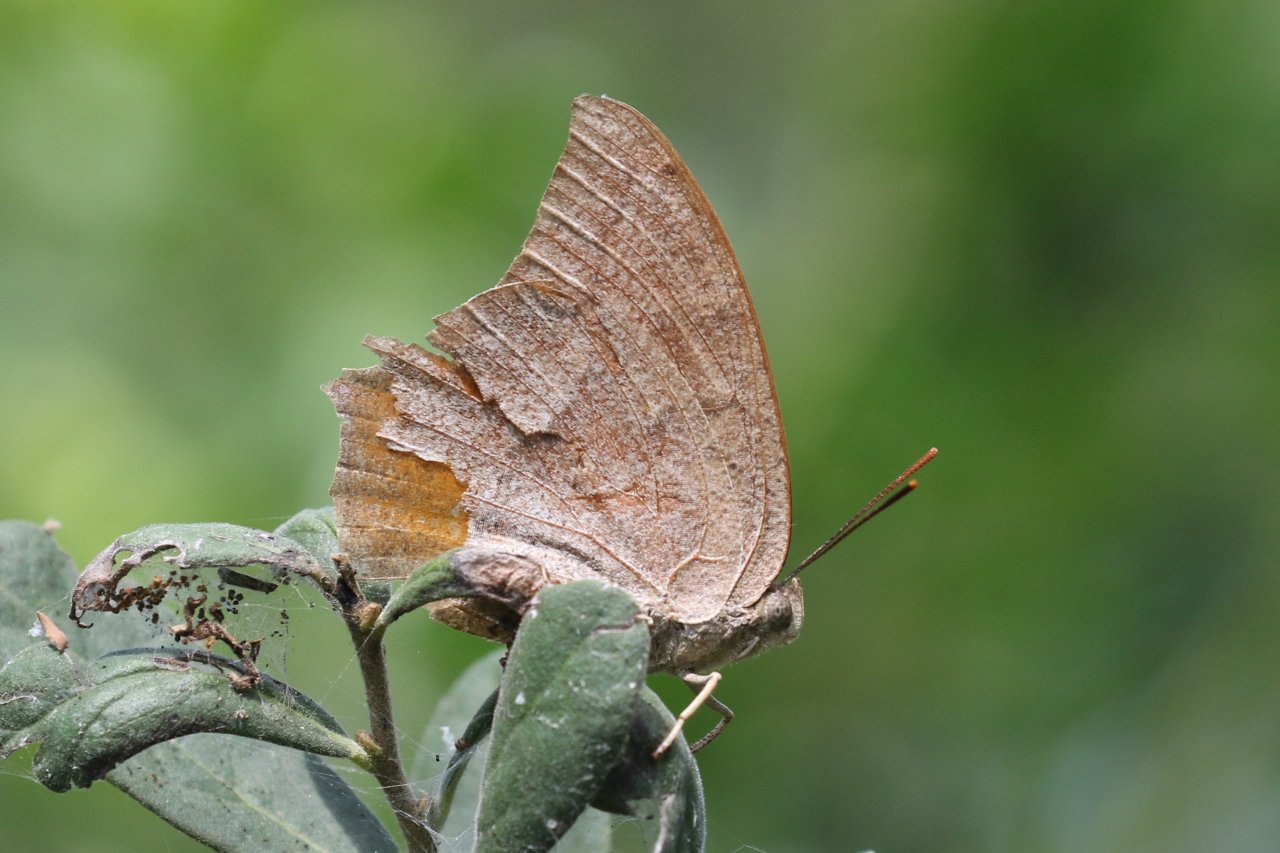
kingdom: Animalia
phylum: Arthropoda
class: Insecta
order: Lepidoptera
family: Nymphalidae
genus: Anaea
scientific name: Anaea andria
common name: Goatweed Leafwing
